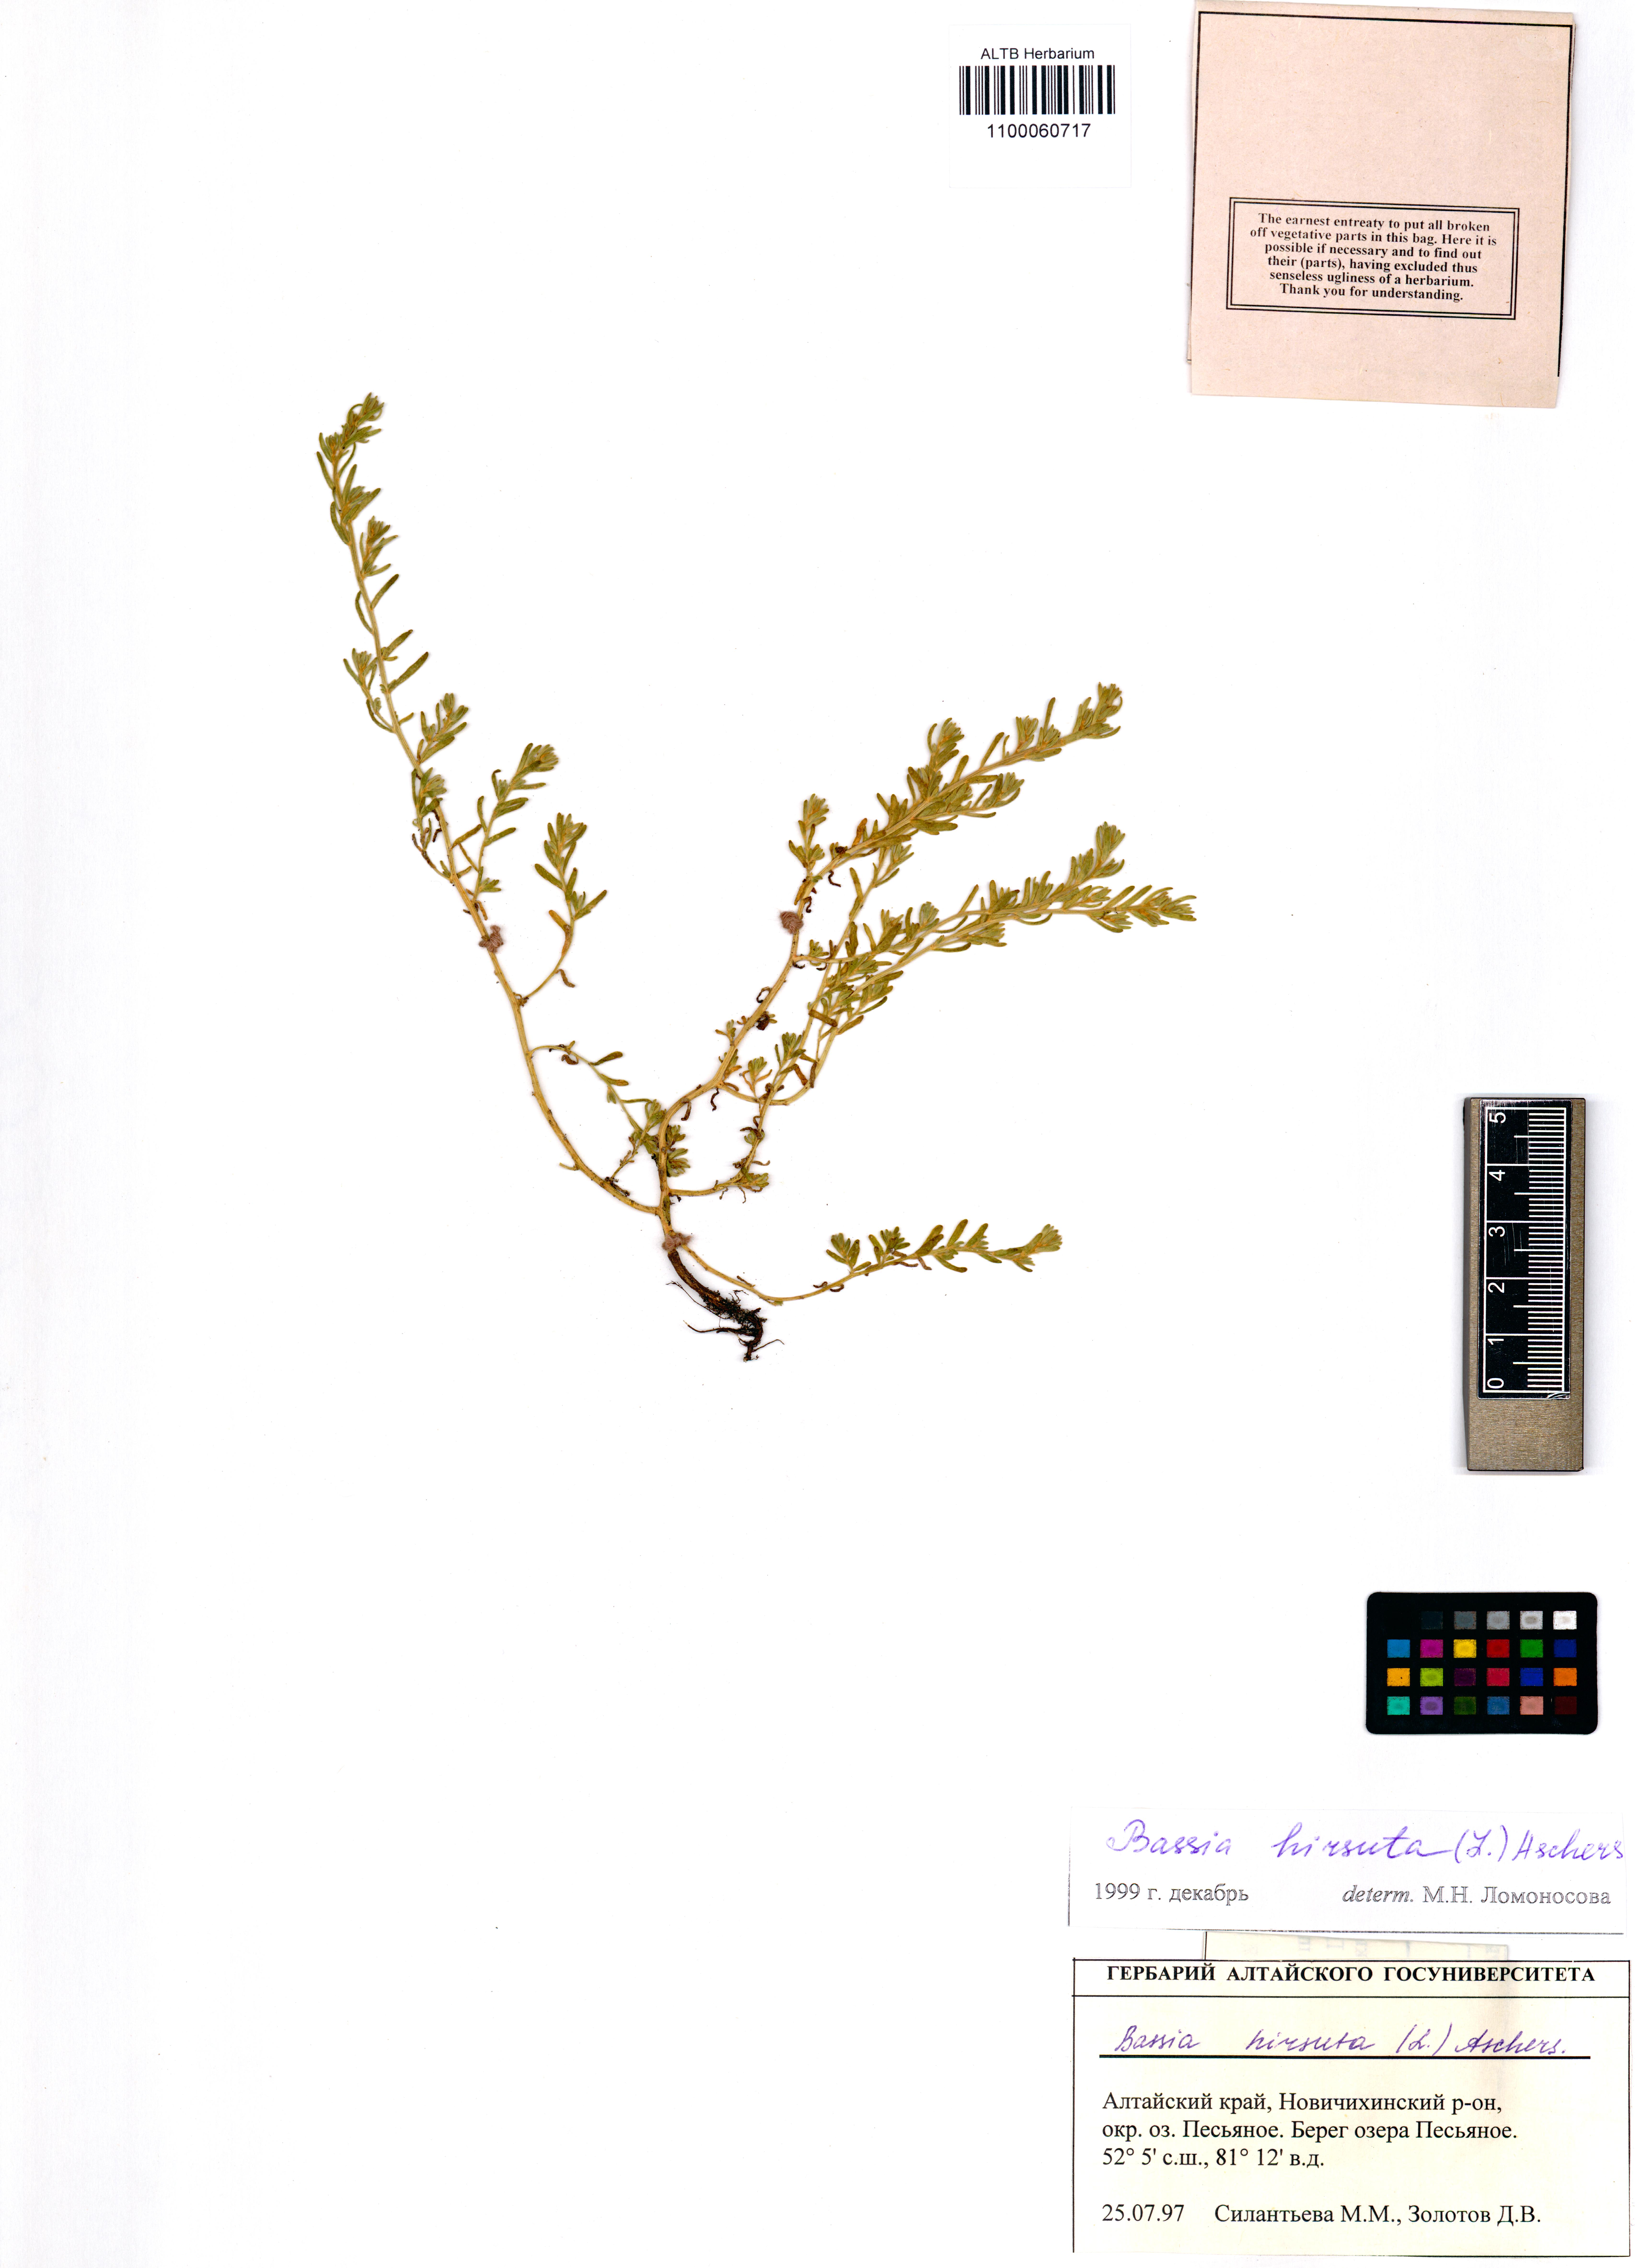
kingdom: Plantae
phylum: Tracheophyta
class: Magnoliopsida
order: Caryophyllales
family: Amaranthaceae
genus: Spirobassia
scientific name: Spirobassia hirsuta
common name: Hairy smotherweed
